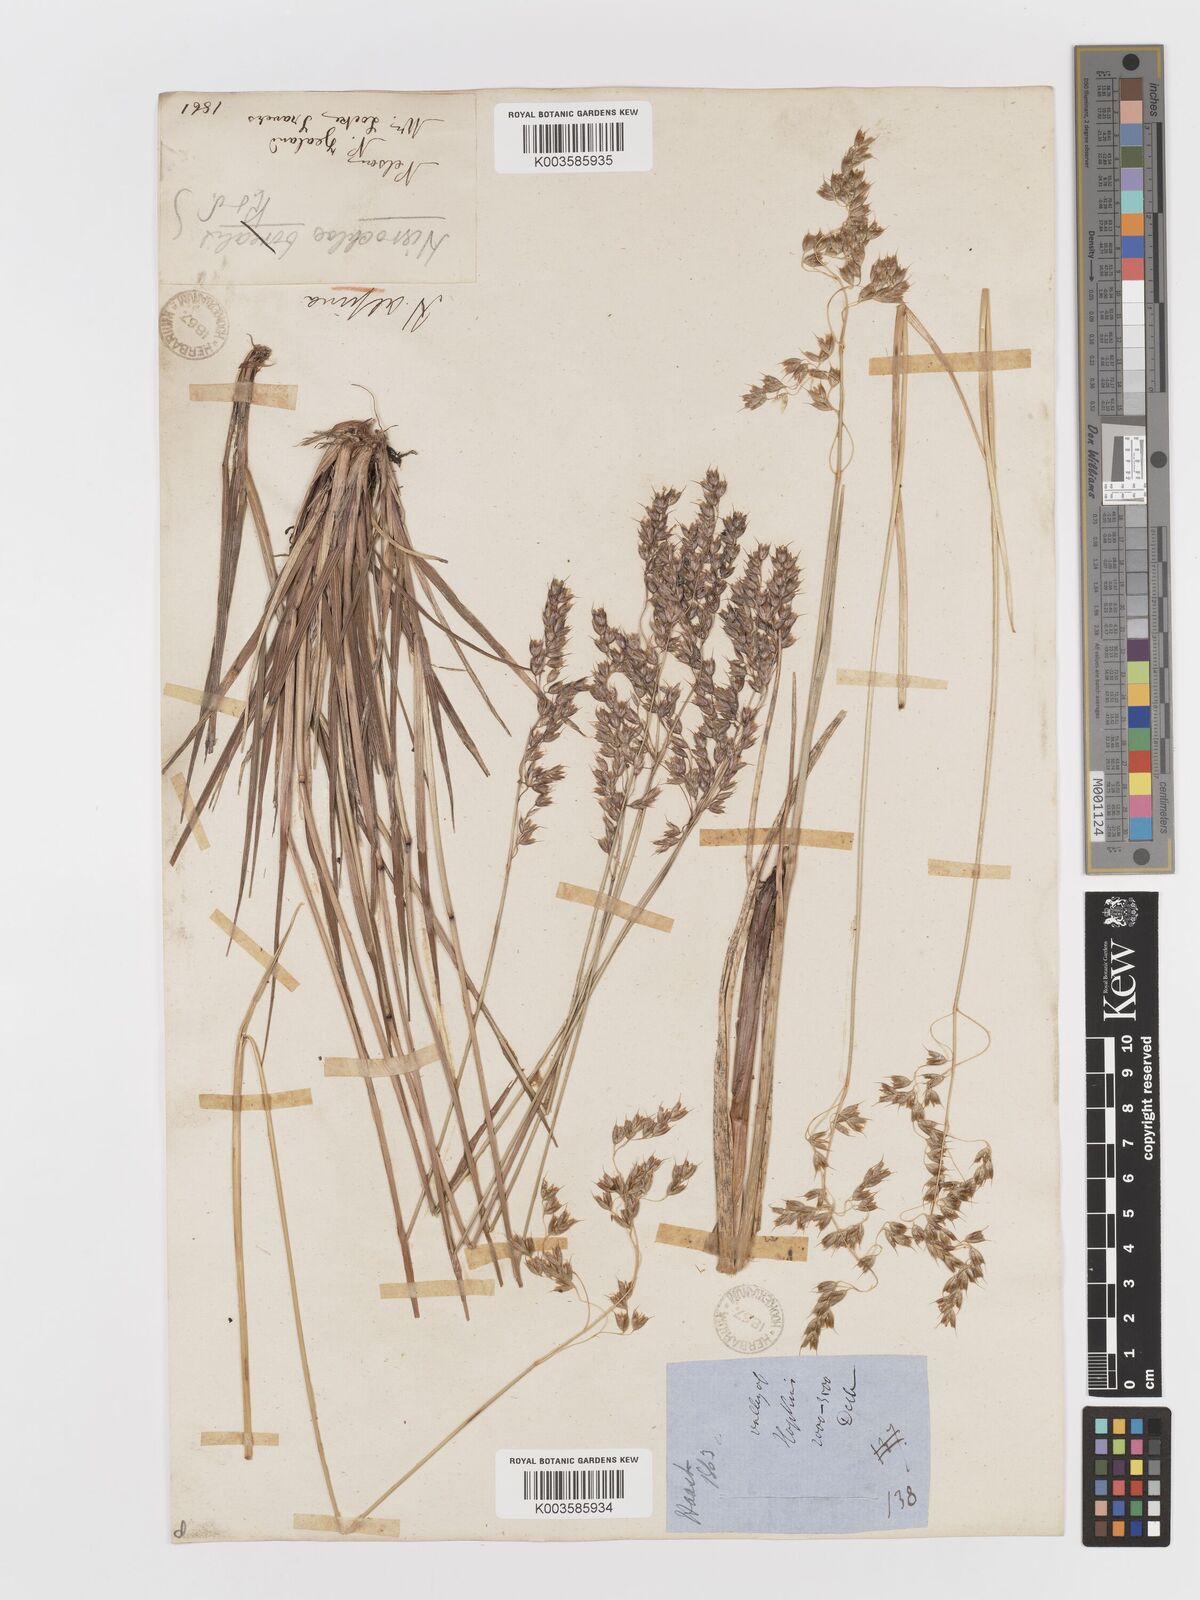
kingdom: Plantae
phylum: Tracheophyta
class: Liliopsida
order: Poales
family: Poaceae
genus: Anthoxanthum
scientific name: Anthoxanthum novae-zelandiae
